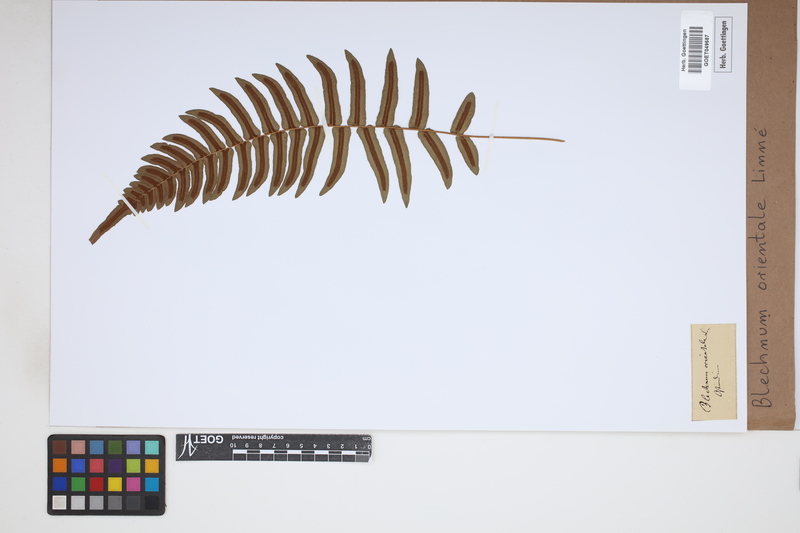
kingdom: Plantae
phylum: Tracheophyta
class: Polypodiopsida
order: Polypodiales
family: Blechnaceae
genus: Blechnopsis
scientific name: Blechnopsis orientalis
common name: Oriental blechnum
